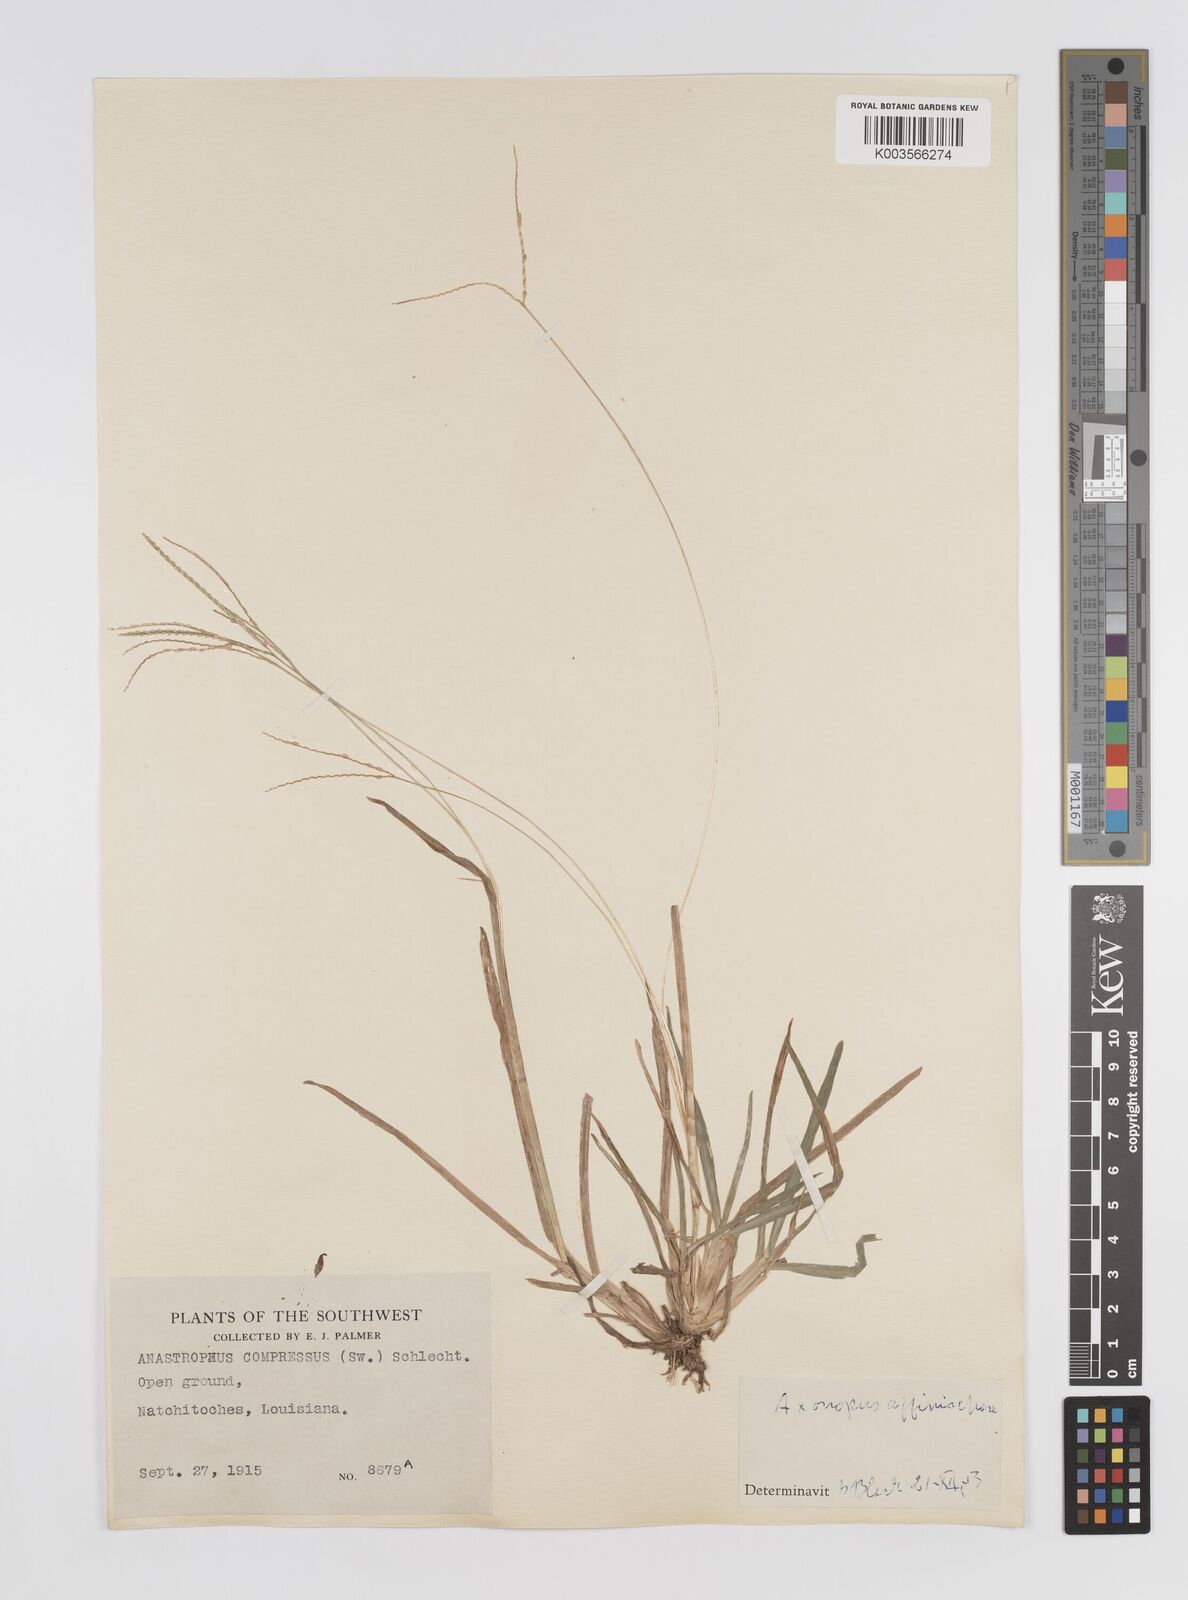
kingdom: Plantae
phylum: Tracheophyta
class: Liliopsida
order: Poales
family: Poaceae
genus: Axonopus
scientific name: Axonopus fissifolius
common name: Common carpetgrass
